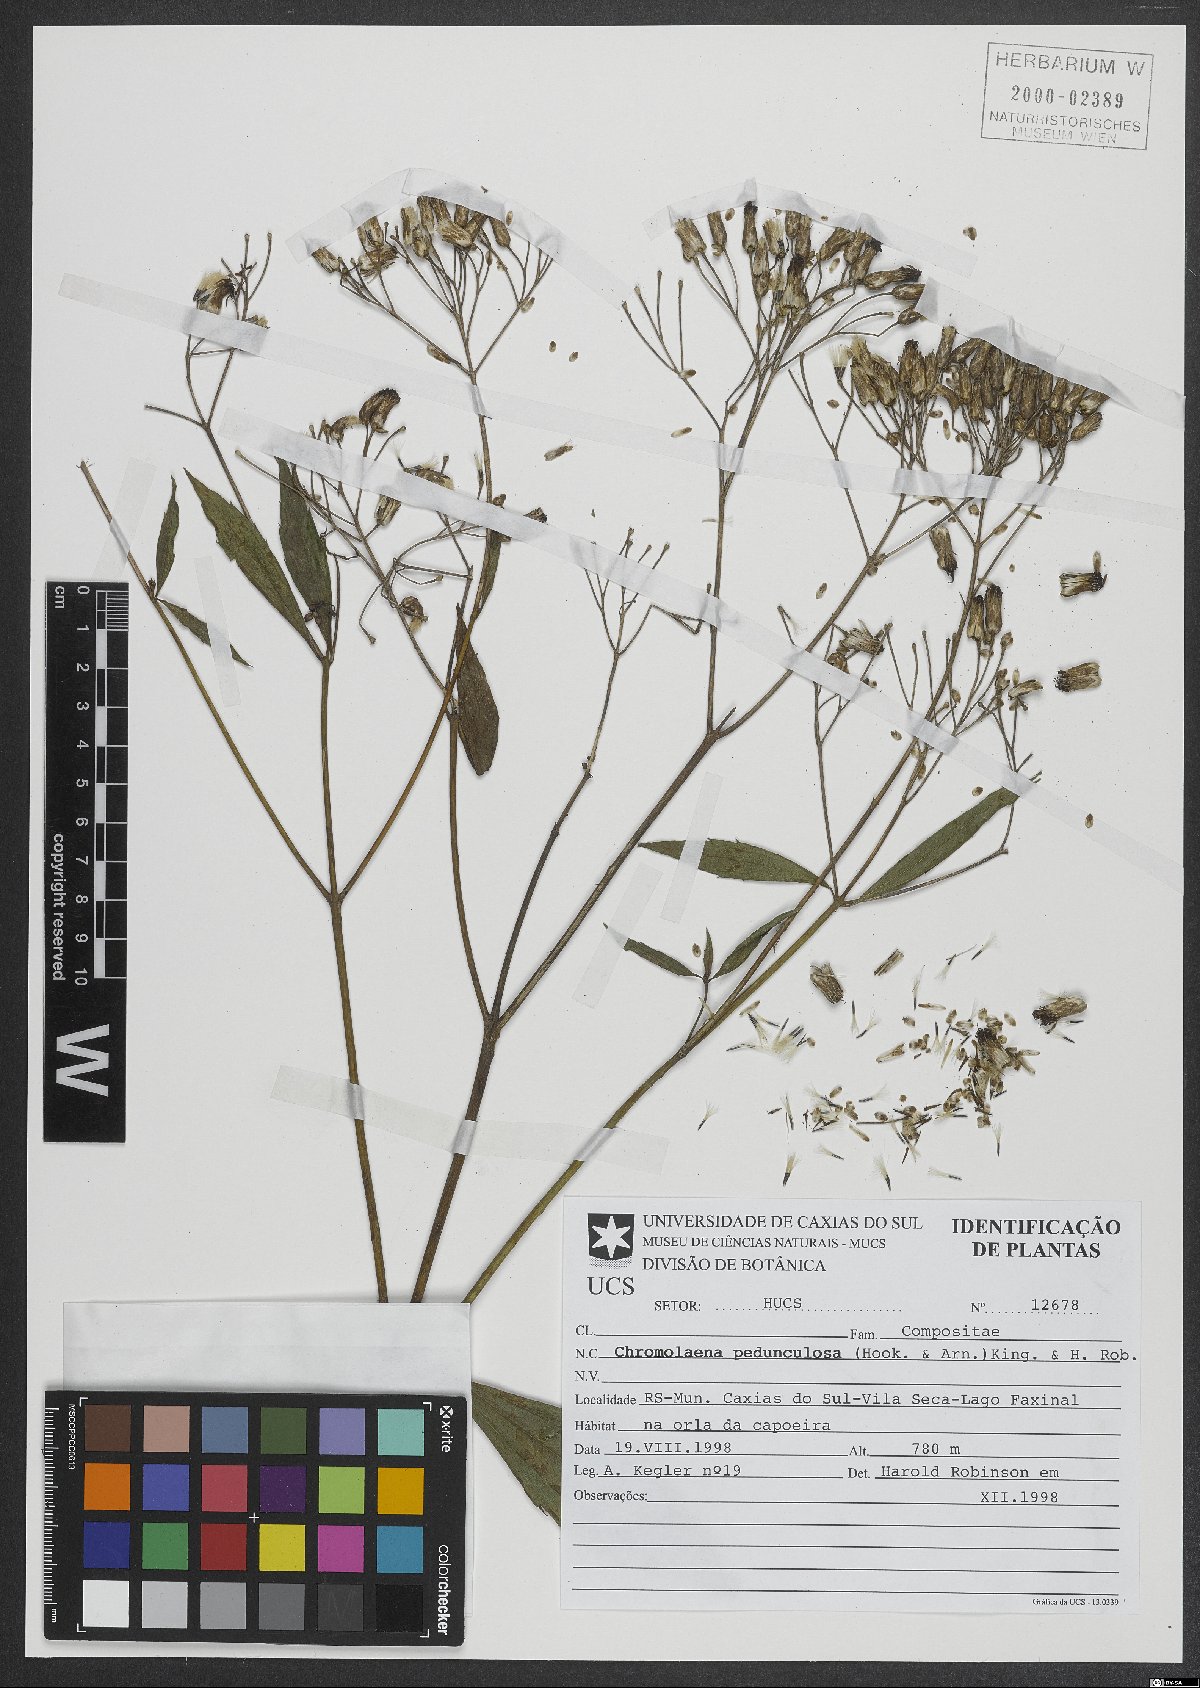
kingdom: Plantae
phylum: Tracheophyta
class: Magnoliopsida
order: Asterales
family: Asteraceae
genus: Chromolaena
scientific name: Chromolaena pedunculosa
